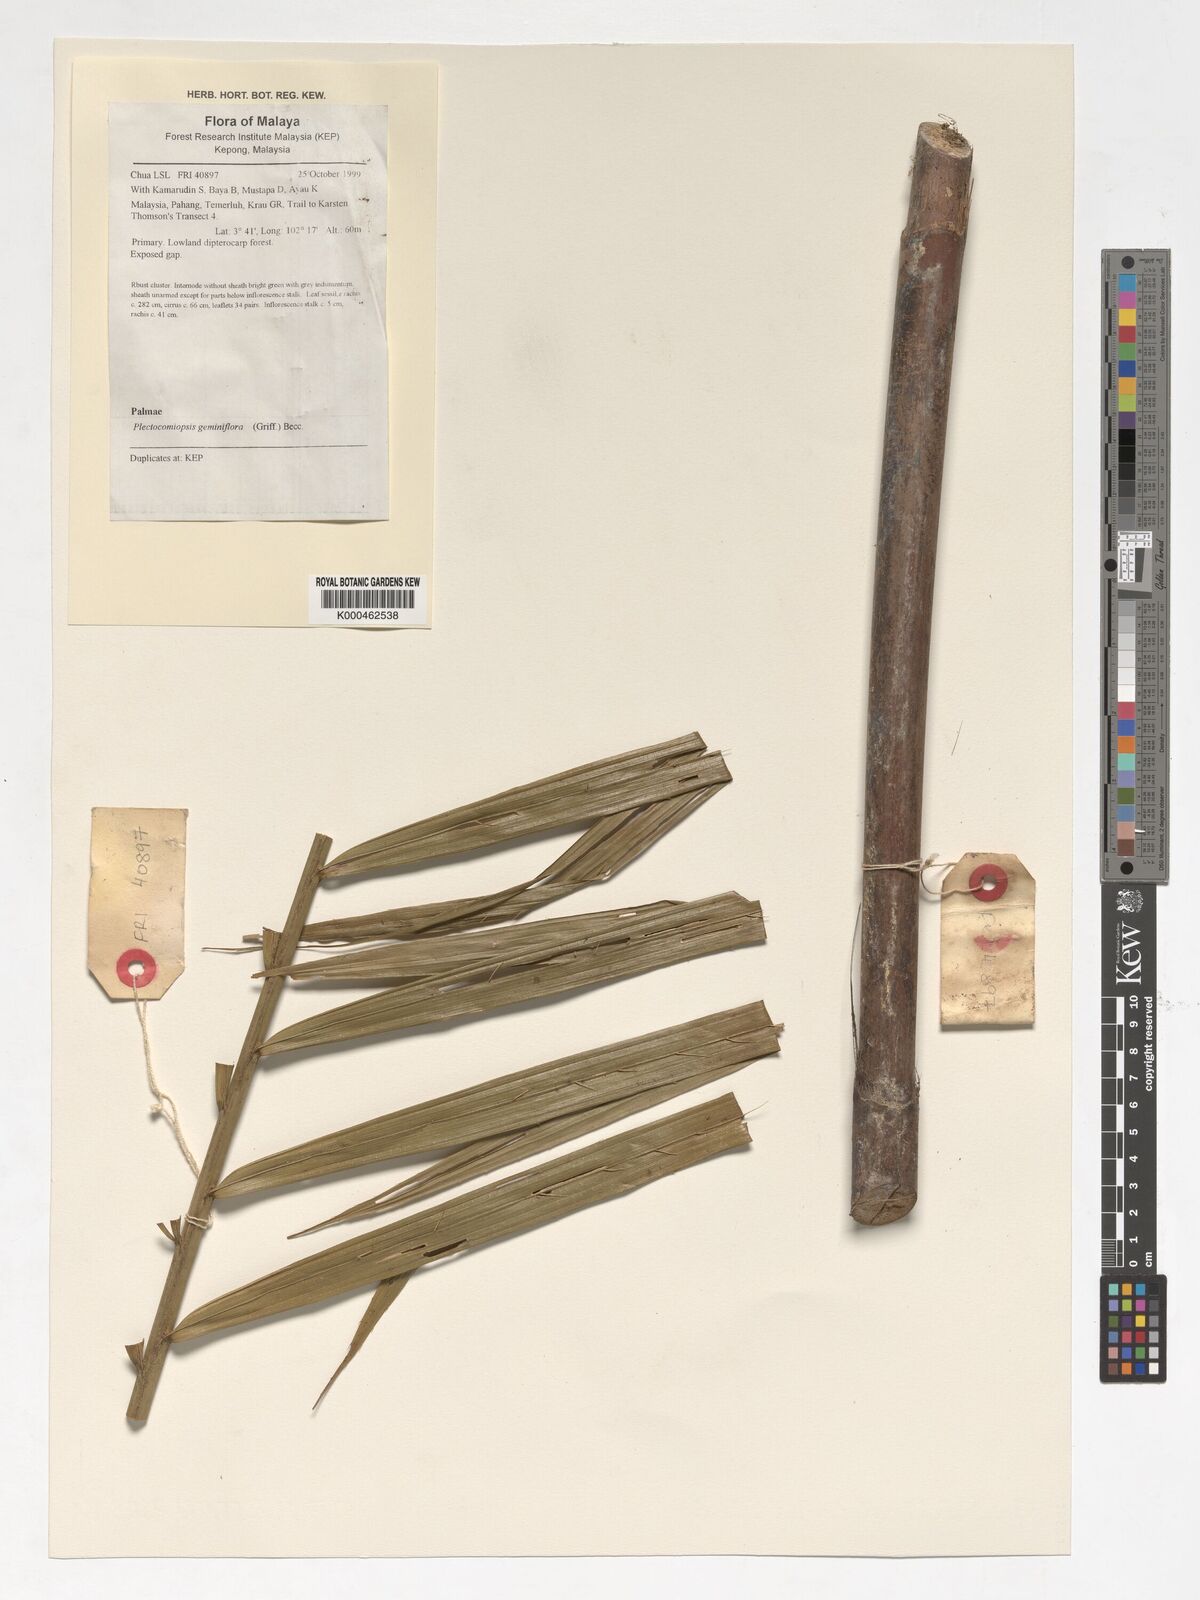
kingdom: Plantae
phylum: Tracheophyta
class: Liliopsida
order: Arecales
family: Arecaceae
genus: Plectocomiopsis
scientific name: Plectocomiopsis geminiflora
